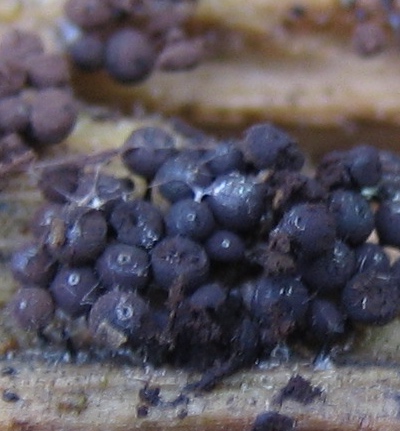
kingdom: Protozoa
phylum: Mycetozoa
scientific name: Mycetozoa
